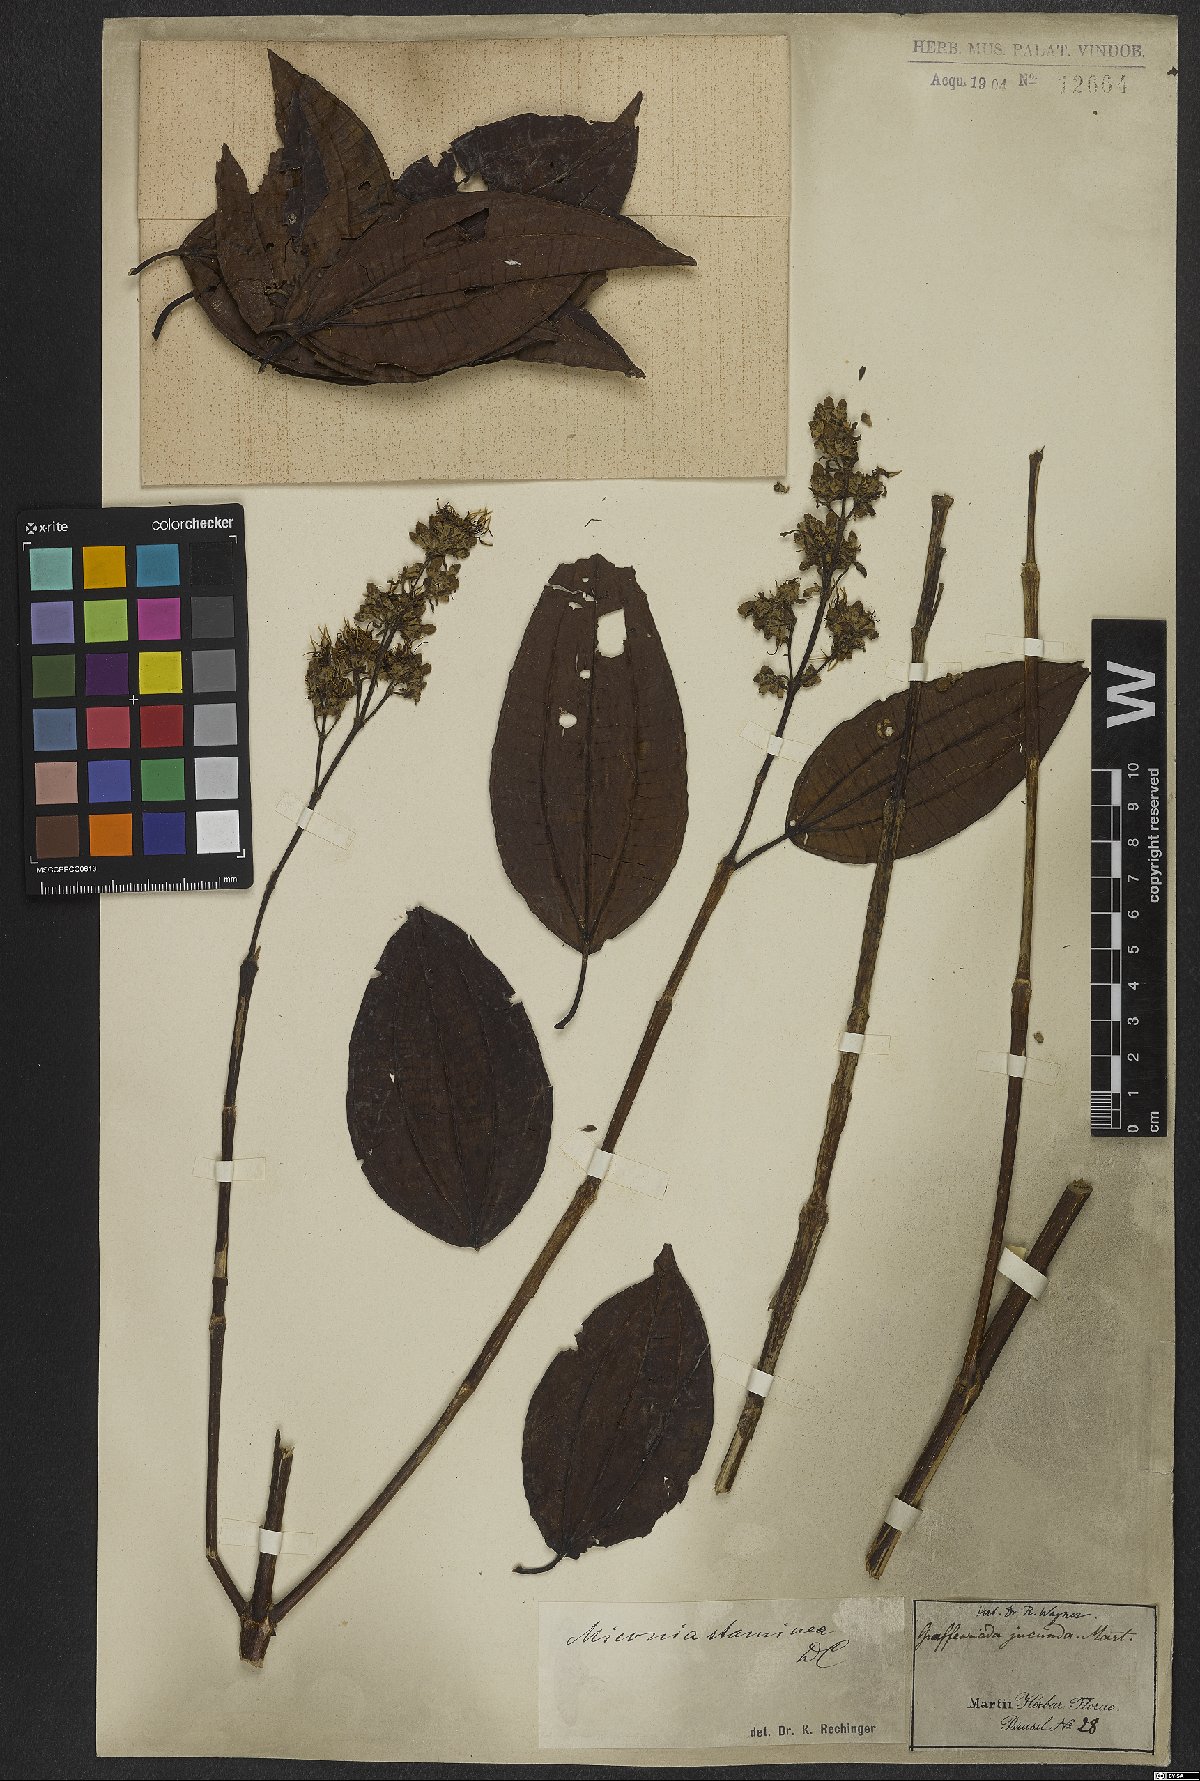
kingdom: Plantae
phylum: Tracheophyta
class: Magnoliopsida
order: Myrtales
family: Melastomataceae
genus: Miconia
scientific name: Miconia staminea
